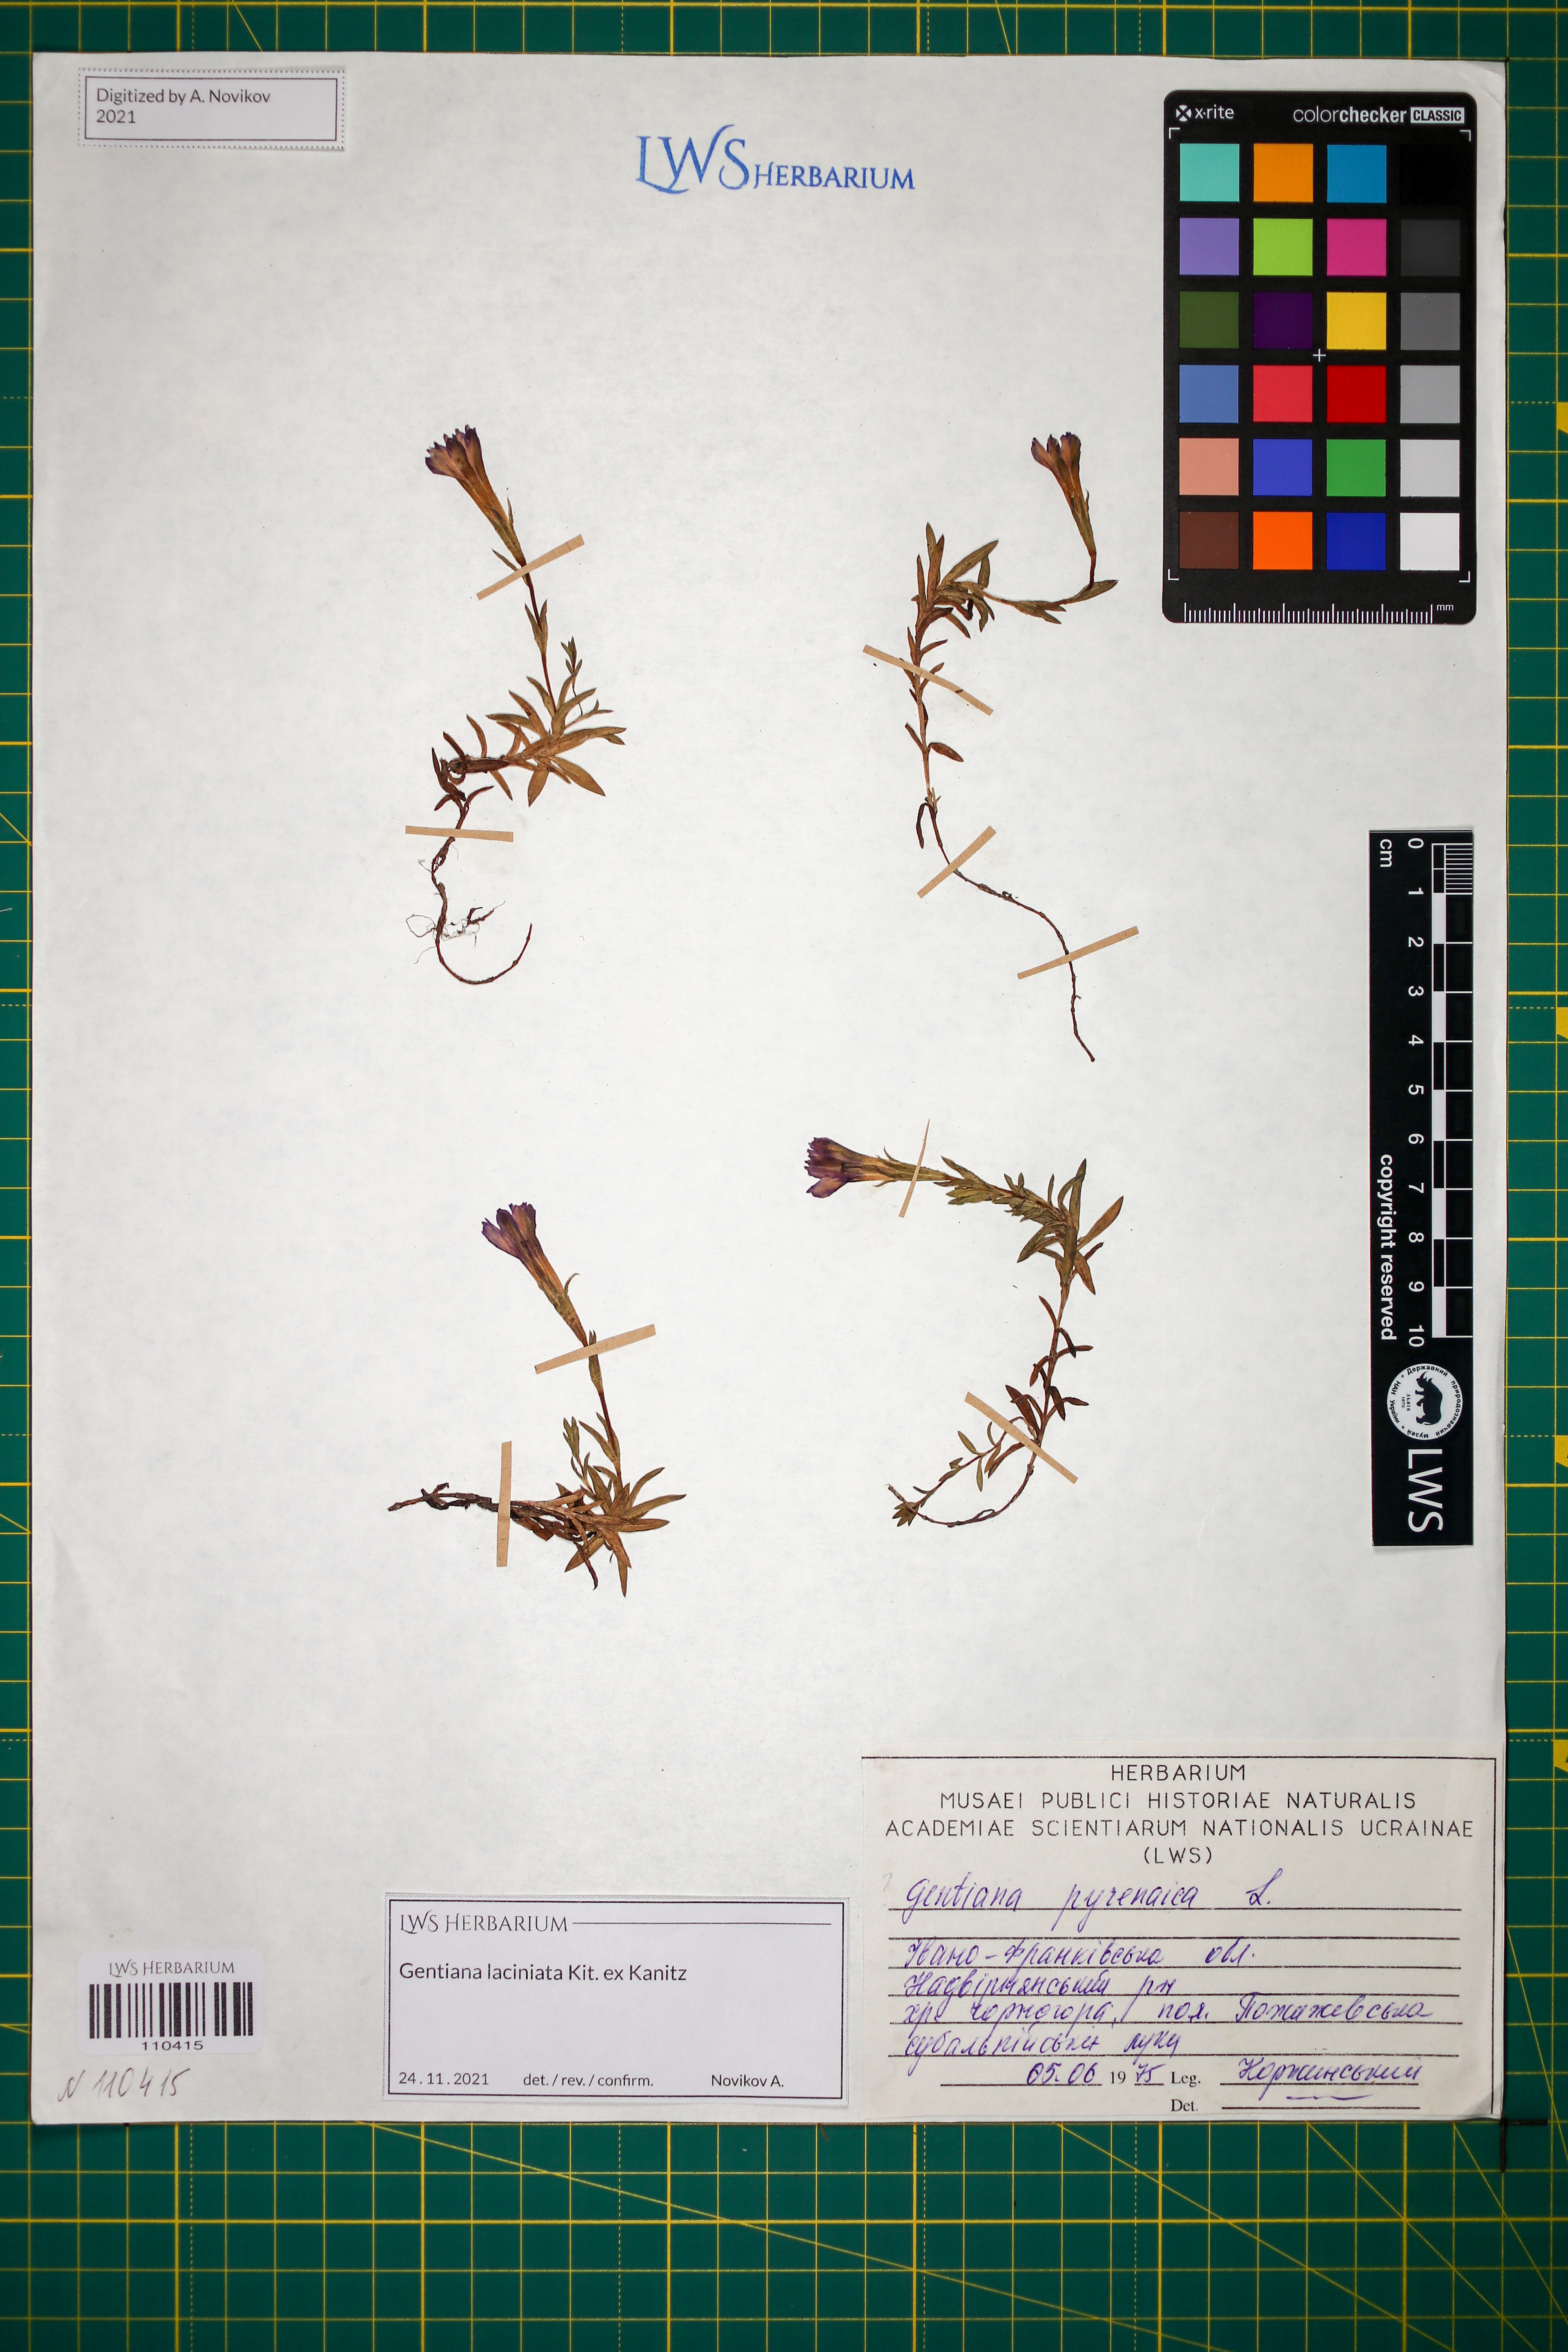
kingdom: Plantae
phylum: Tracheophyta
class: Magnoliopsida
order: Gentianales
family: Gentianaceae
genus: Gentiana
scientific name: Gentiana laciniata
